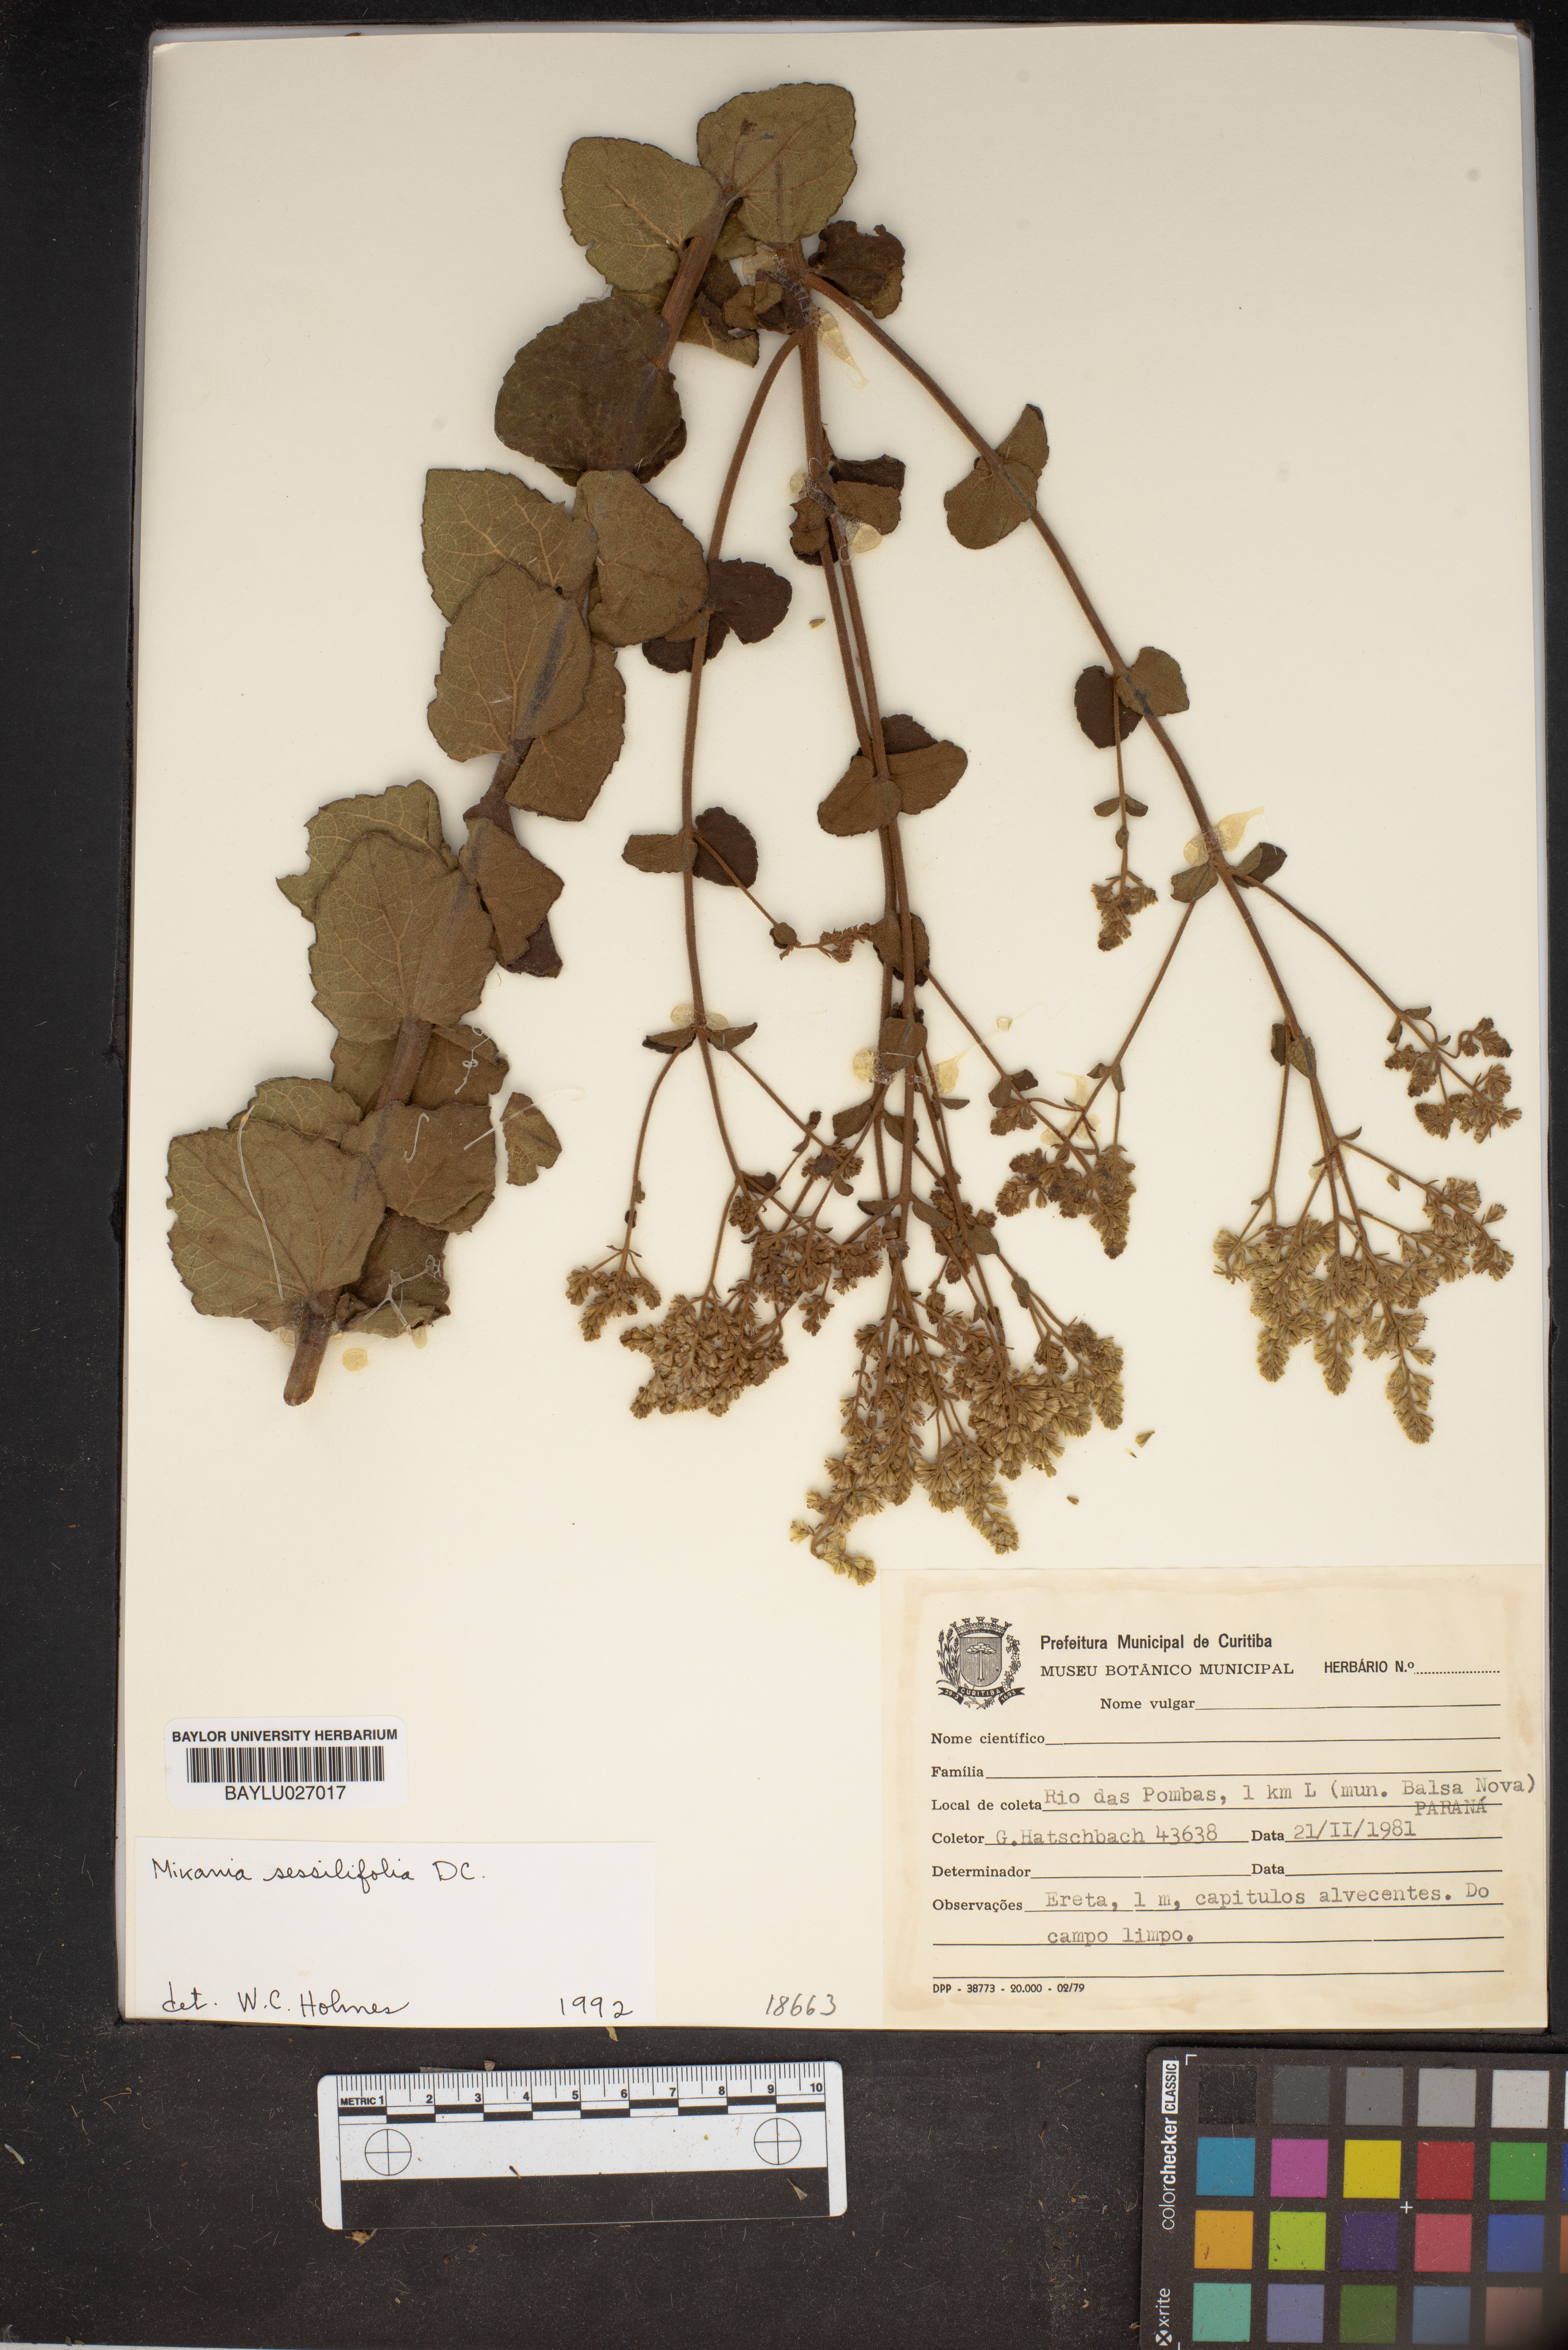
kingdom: Plantae
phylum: Tracheophyta
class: Magnoliopsida
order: Asterales
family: Asteraceae
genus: Mikania
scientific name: Mikania sessilifolia
